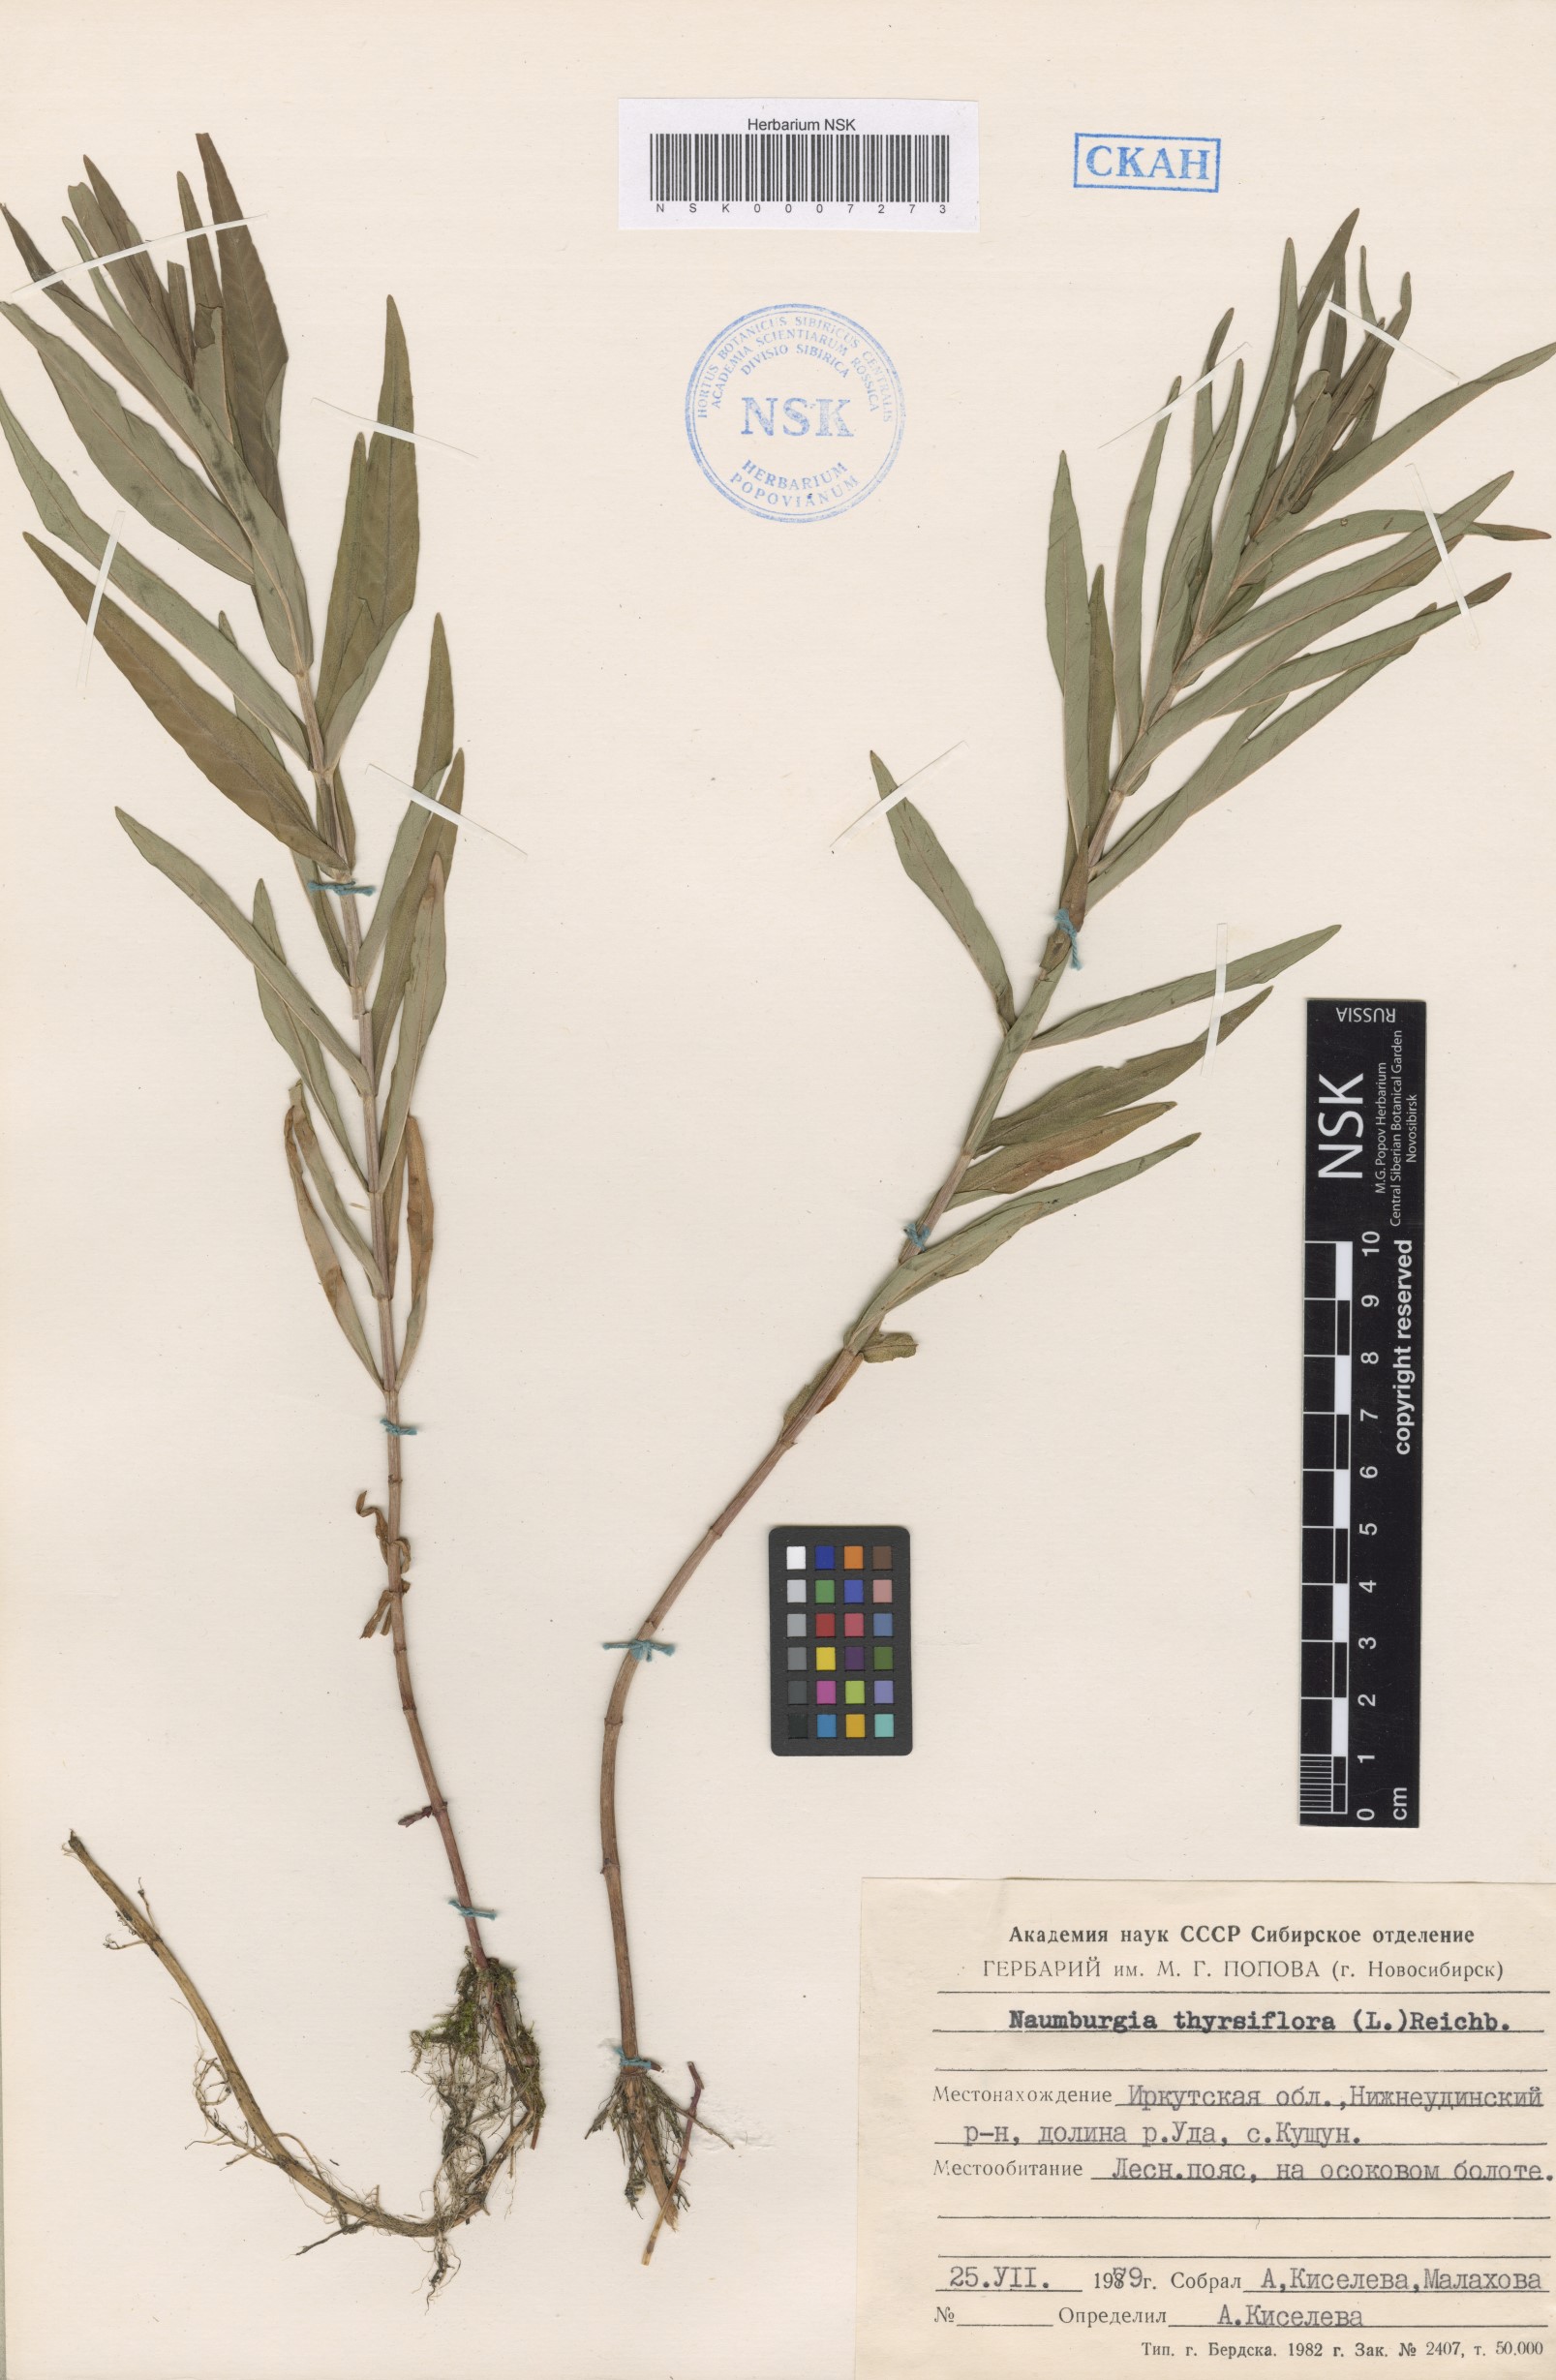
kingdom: Plantae
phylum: Tracheophyta
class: Magnoliopsida
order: Ericales
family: Primulaceae
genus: Lysimachia
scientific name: Lysimachia thyrsiflora
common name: Tufted loosestrife
